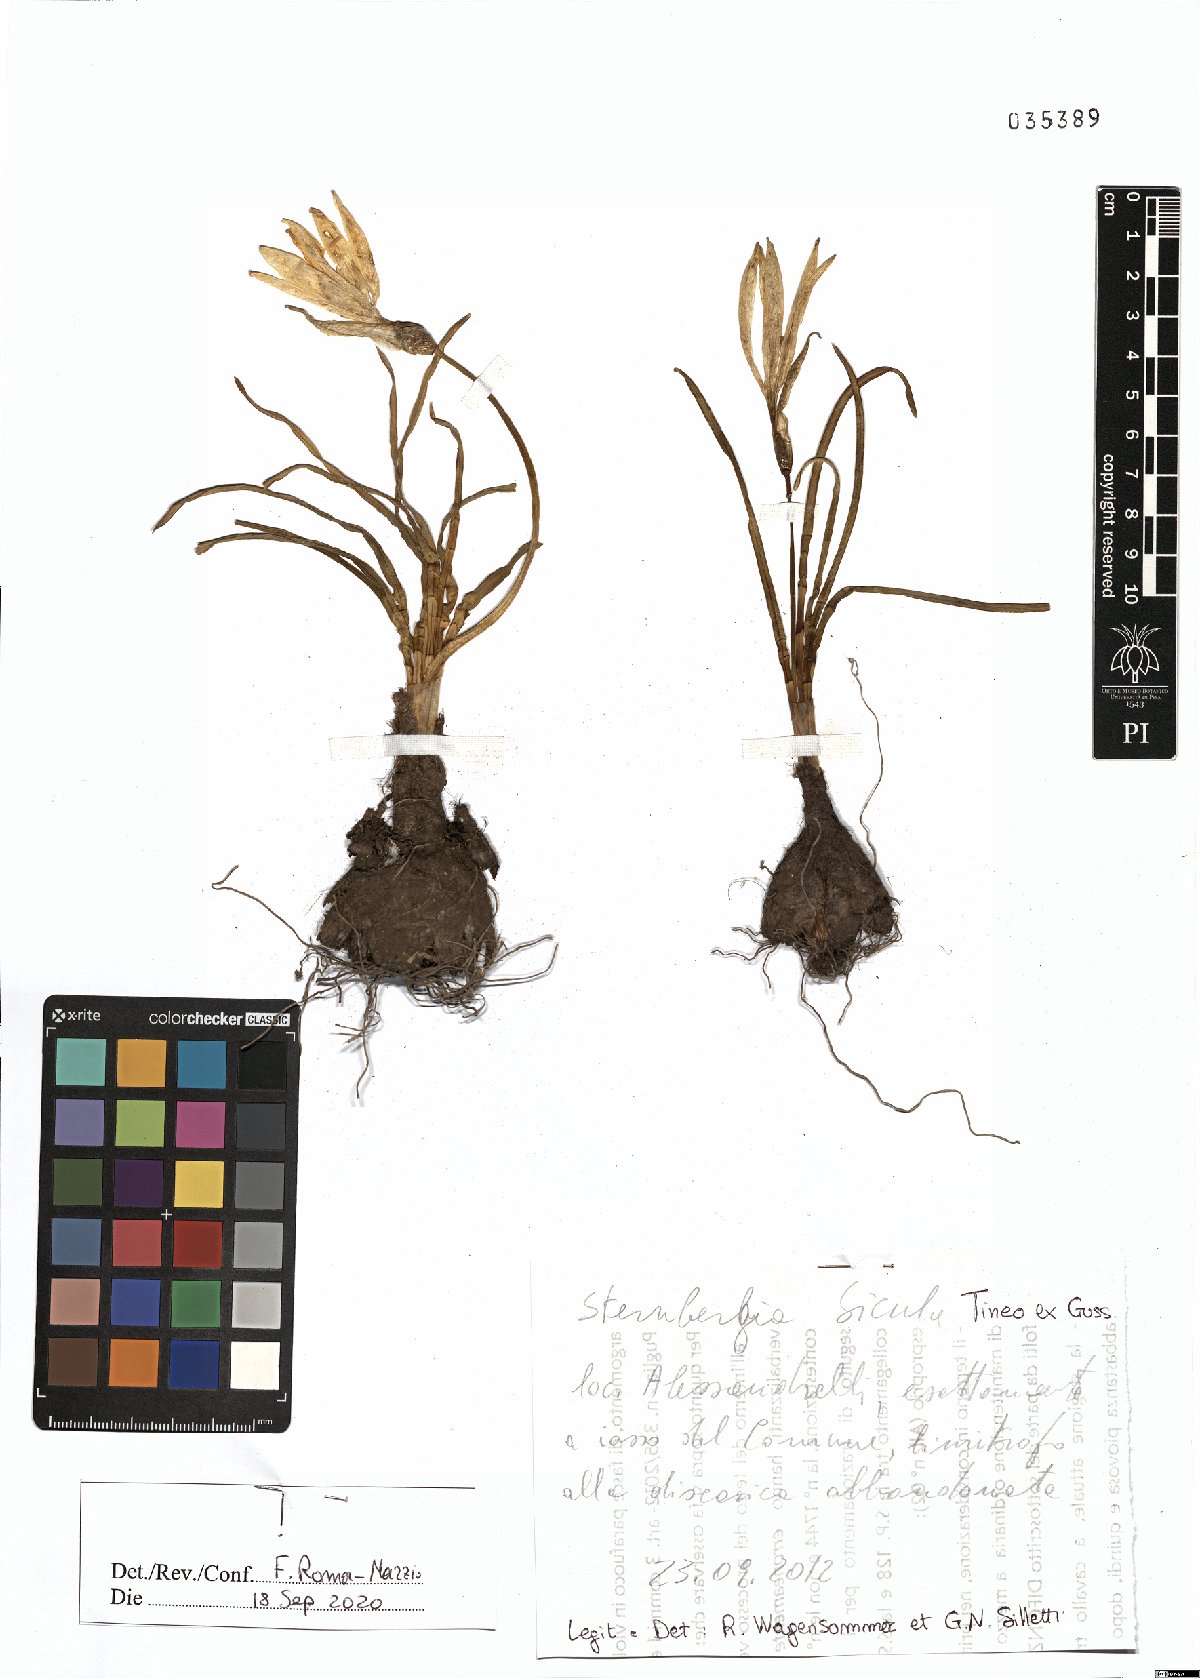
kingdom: Plantae
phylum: Tracheophyta
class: Liliopsida
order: Asparagales
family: Amaryllidaceae
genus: Sternbergia
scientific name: Sternbergia lutea
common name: Winter daffodil
